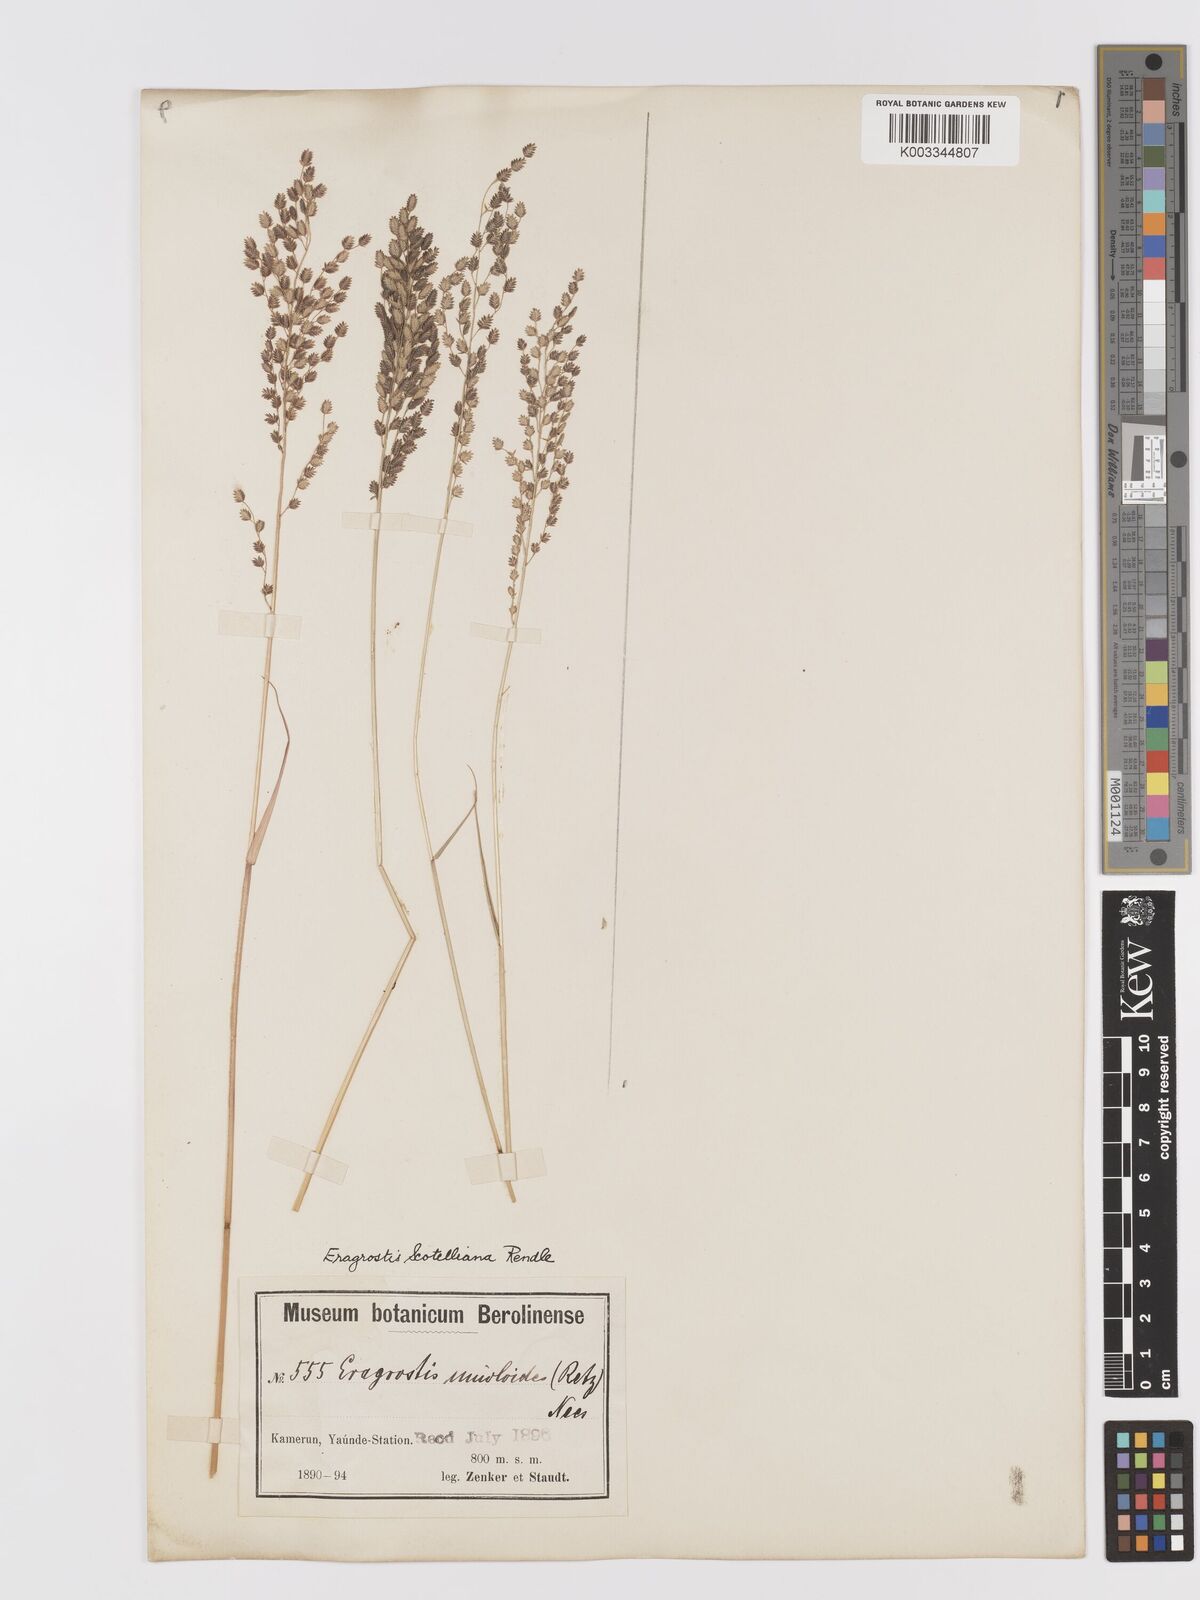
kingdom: Plantae
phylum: Tracheophyta
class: Liliopsida
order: Poales
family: Poaceae
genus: Eragrostis
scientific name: Eragrostis scotelliana
